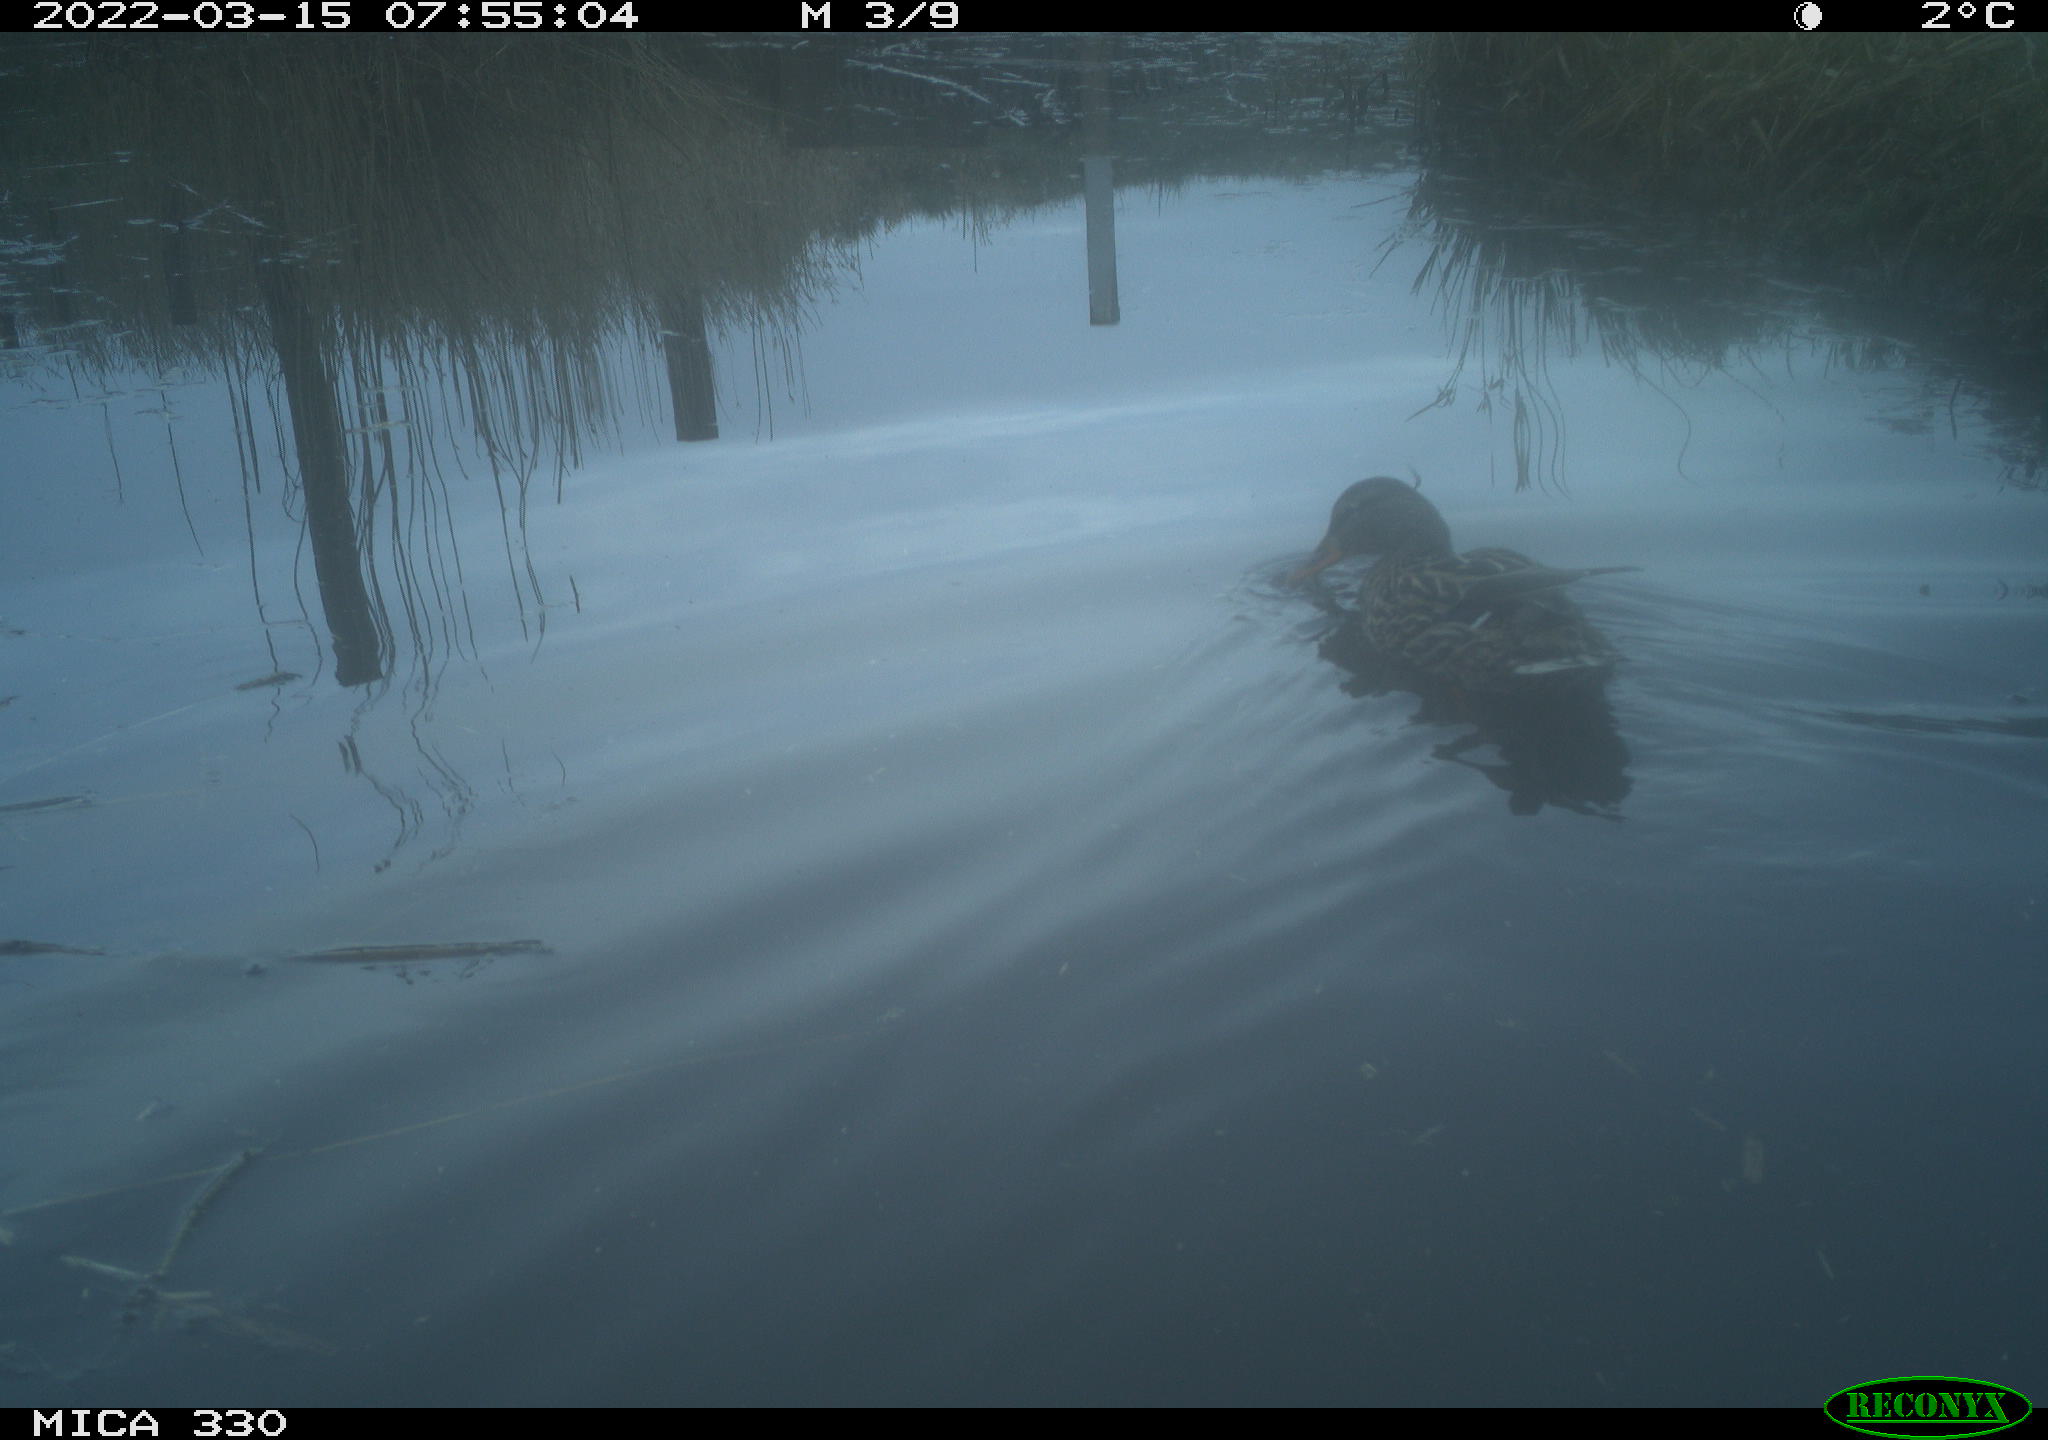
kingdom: Animalia
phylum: Chordata
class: Aves
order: Anseriformes
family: Anatidae
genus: Anas
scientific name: Anas platyrhynchos
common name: Mallard
